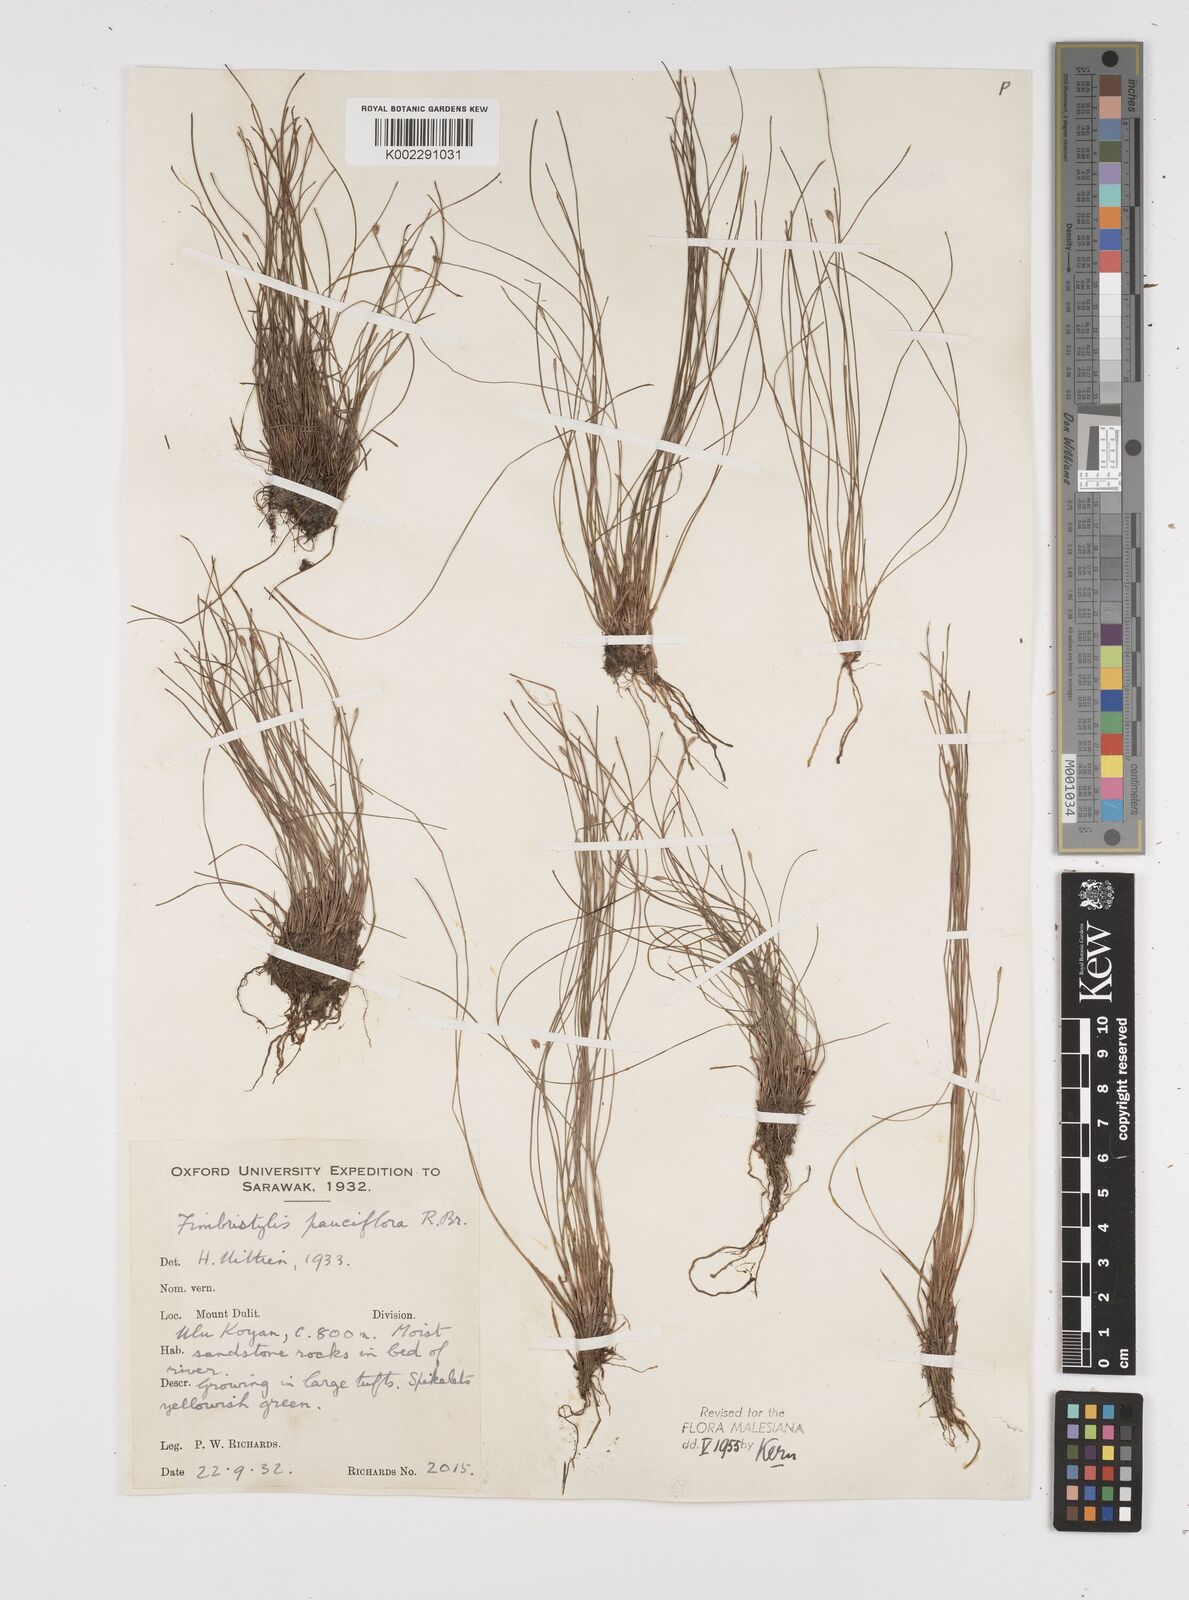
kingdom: Plantae
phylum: Tracheophyta
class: Liliopsida
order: Poales
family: Cyperaceae
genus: Fimbristylis
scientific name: Fimbristylis pauciflora
